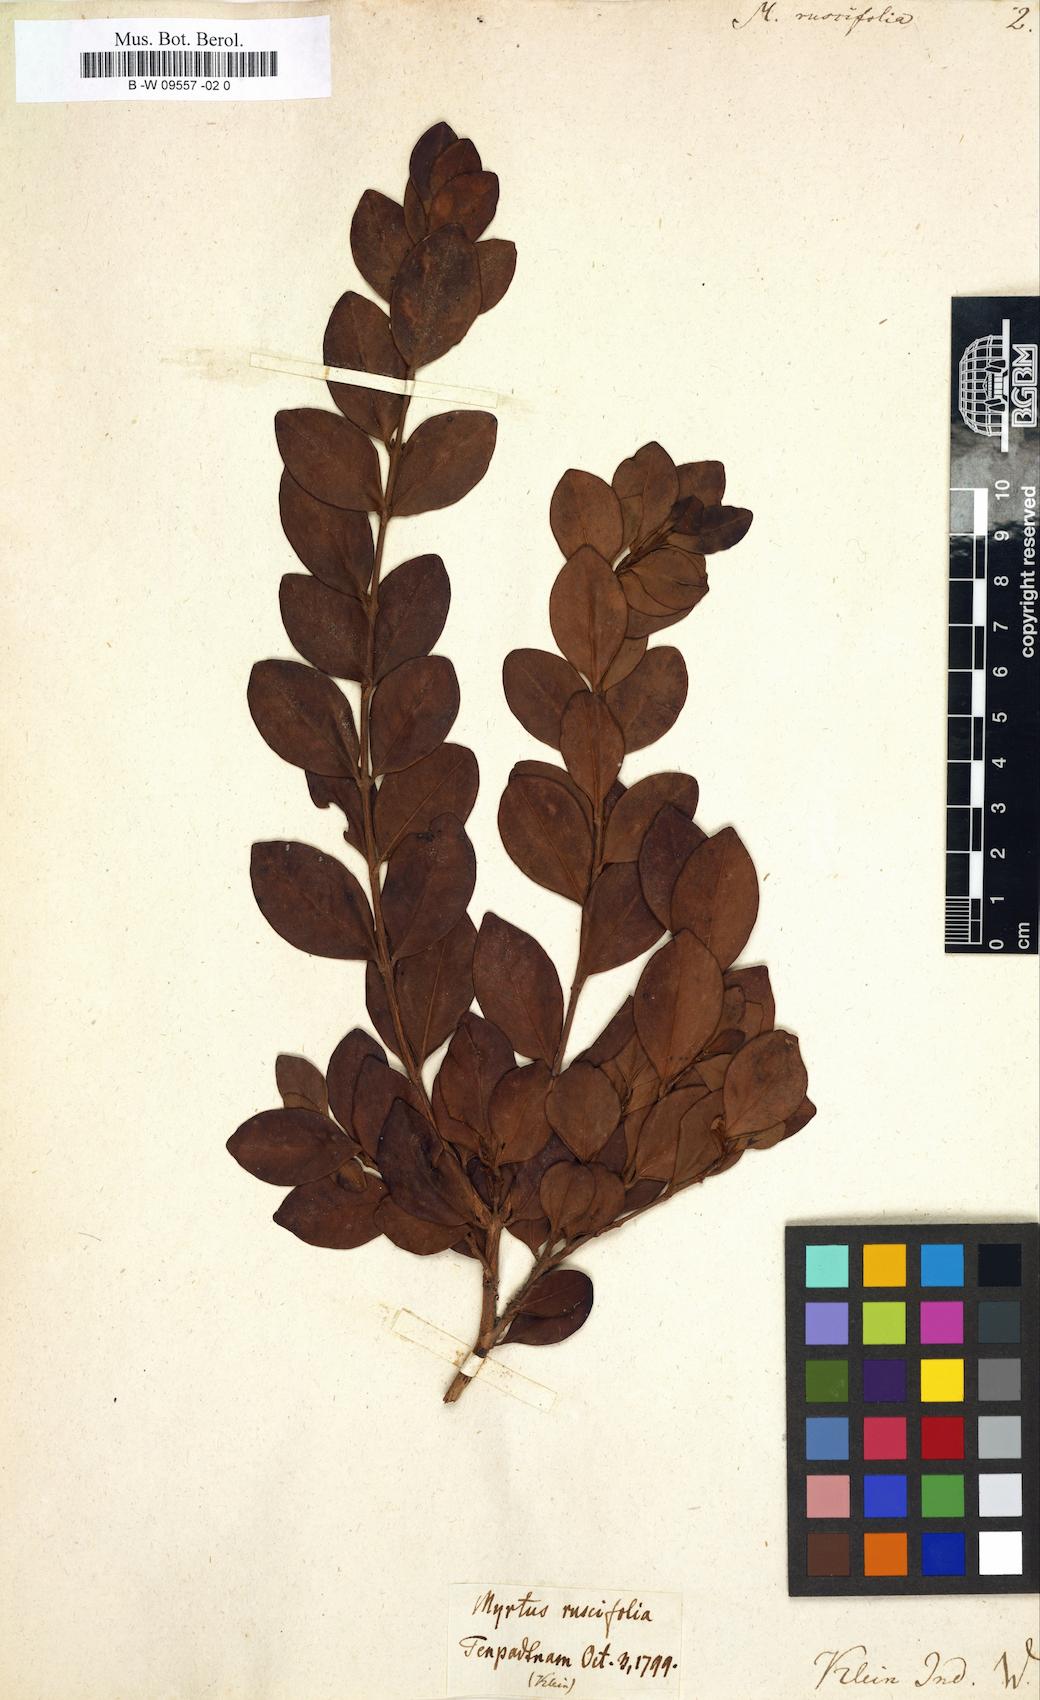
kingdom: Plantae
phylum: Tracheophyta
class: Magnoliopsida
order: Myrtales
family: Myrtaceae
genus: Myrtus
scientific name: Myrtus ruscifolia
